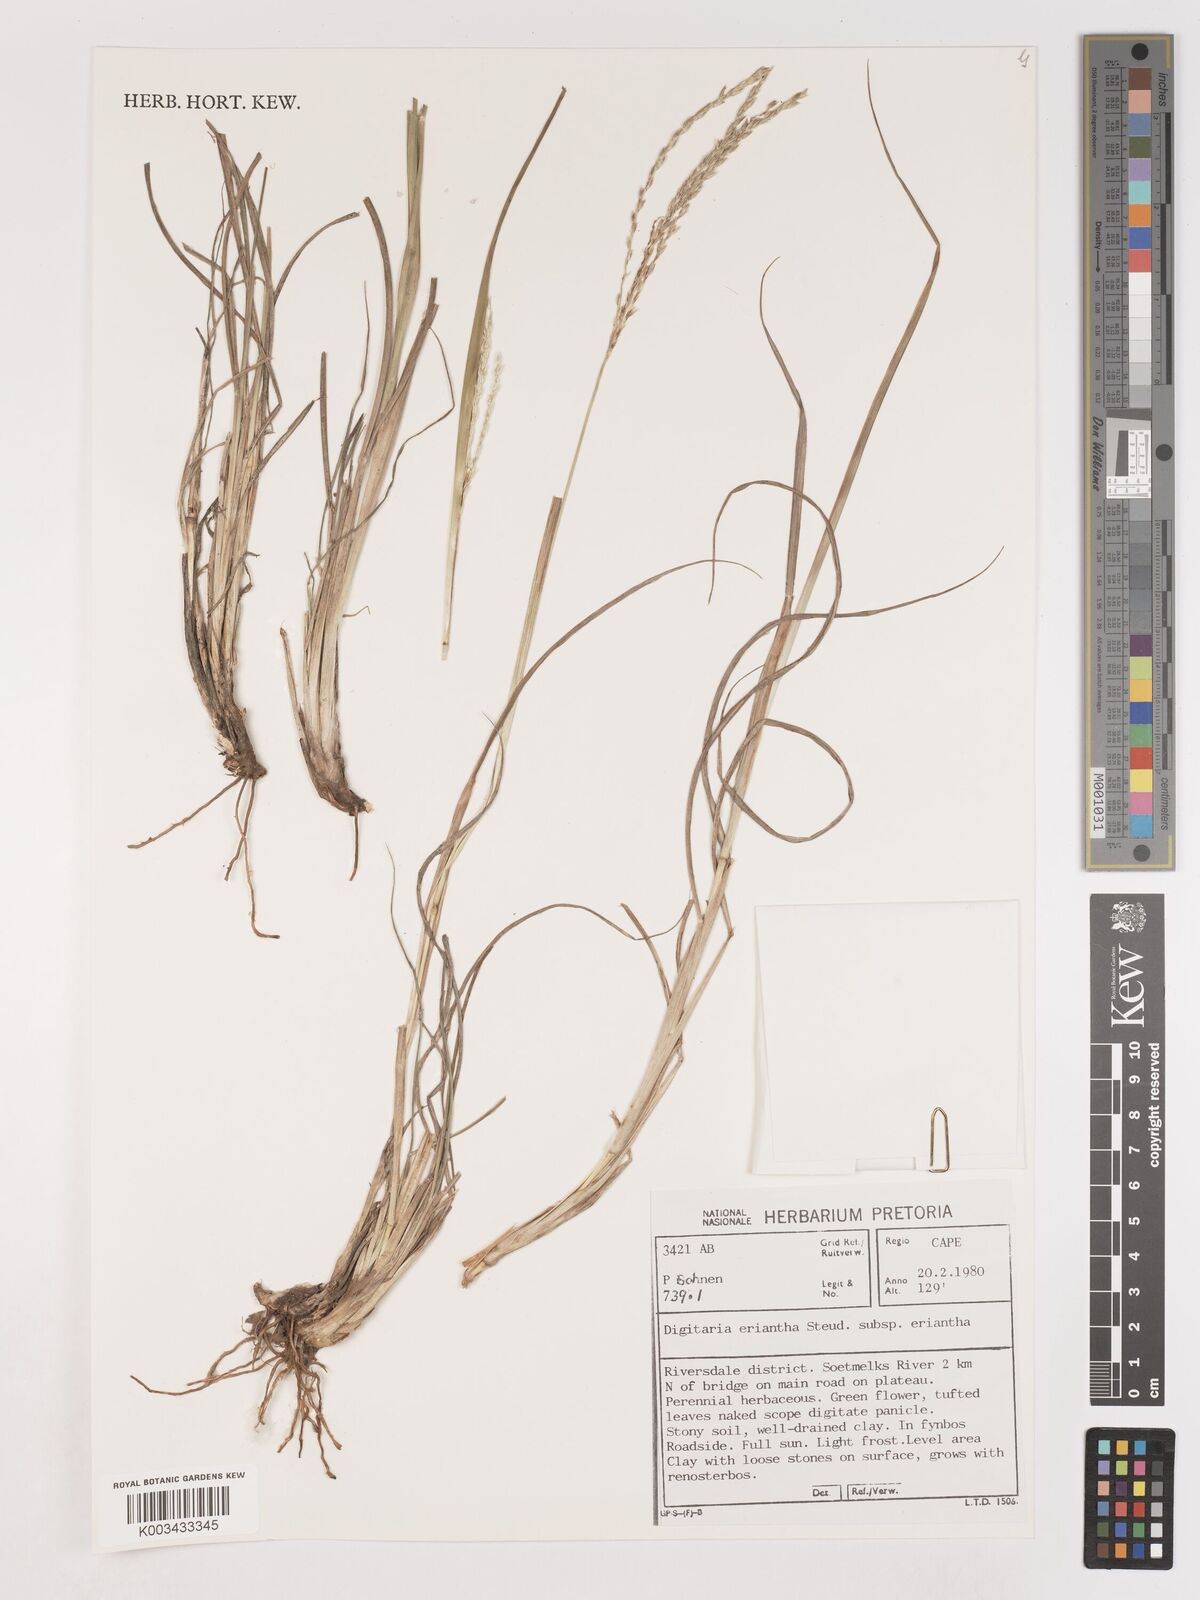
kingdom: Plantae
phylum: Tracheophyta
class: Liliopsida
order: Poales
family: Poaceae
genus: Digitaria
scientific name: Digitaria eriantha
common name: Digitgrass
